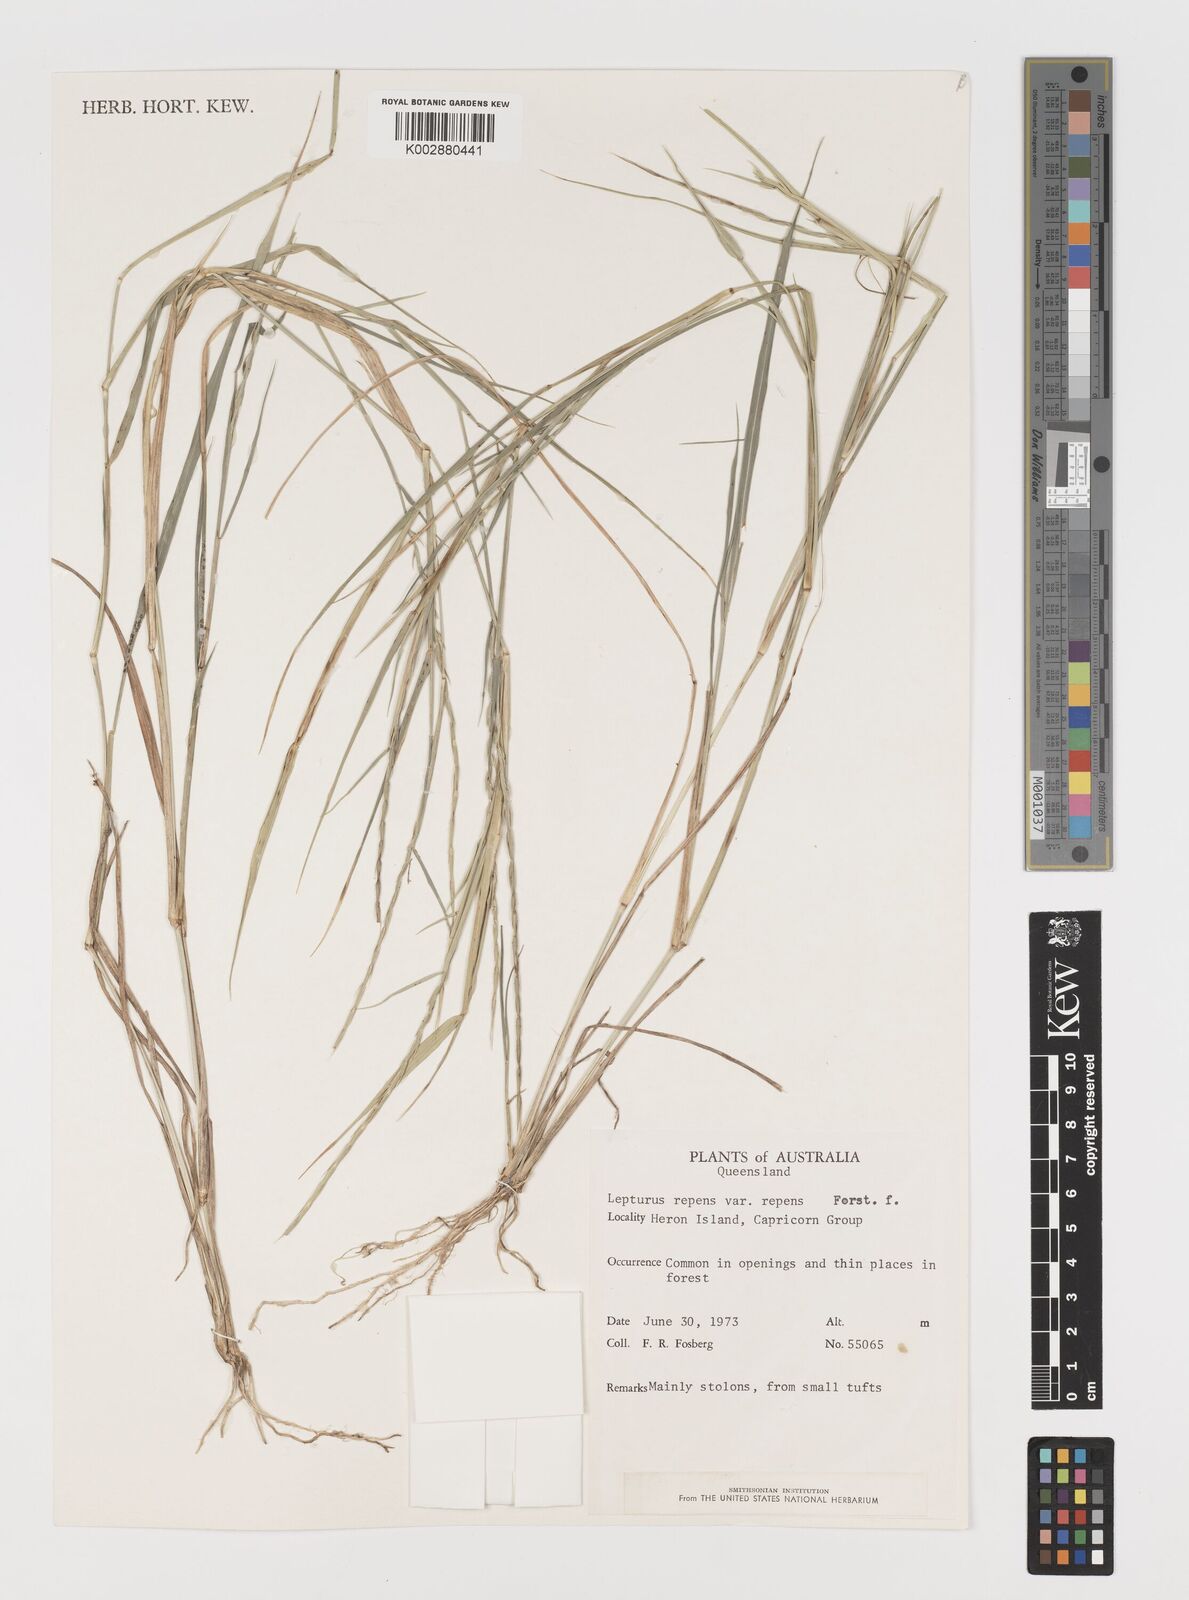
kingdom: Plantae
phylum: Tracheophyta
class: Liliopsida
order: Poales
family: Poaceae
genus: Lepturus
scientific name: Lepturus repens
